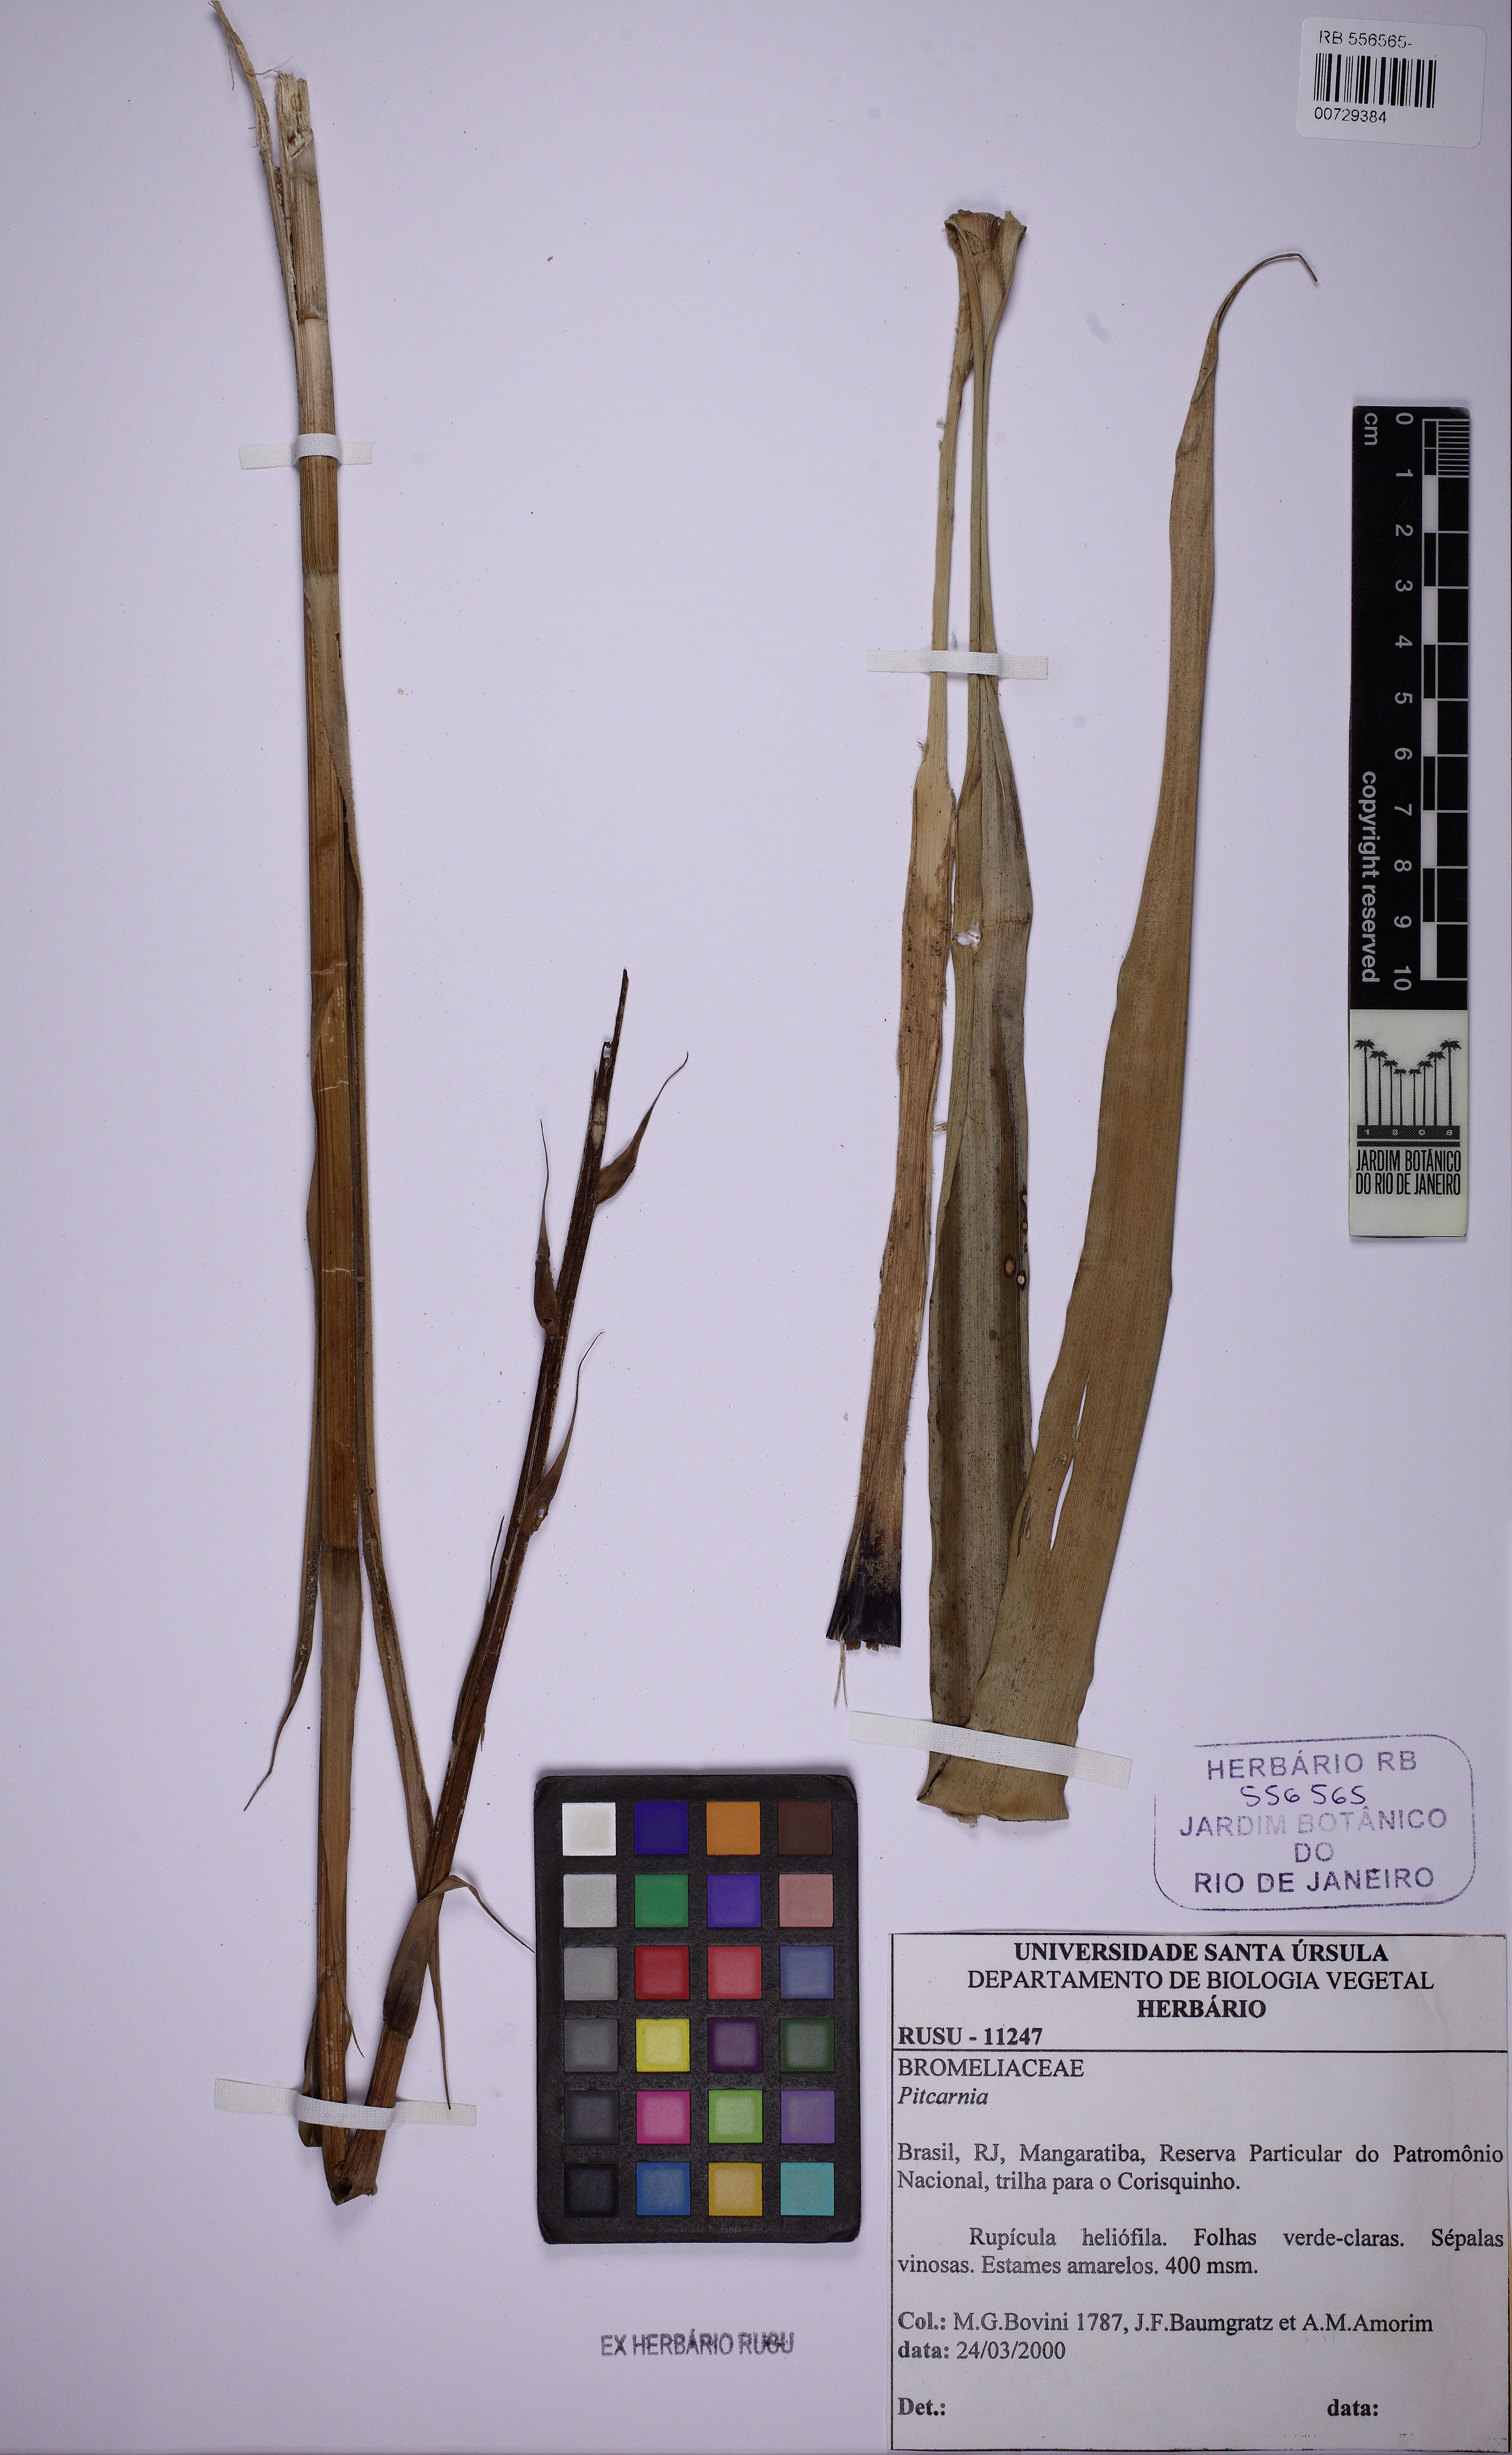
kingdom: Plantae
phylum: Tracheophyta
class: Liliopsida
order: Poales
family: Bromeliaceae
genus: Pitcairnia
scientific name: Pitcairnia
